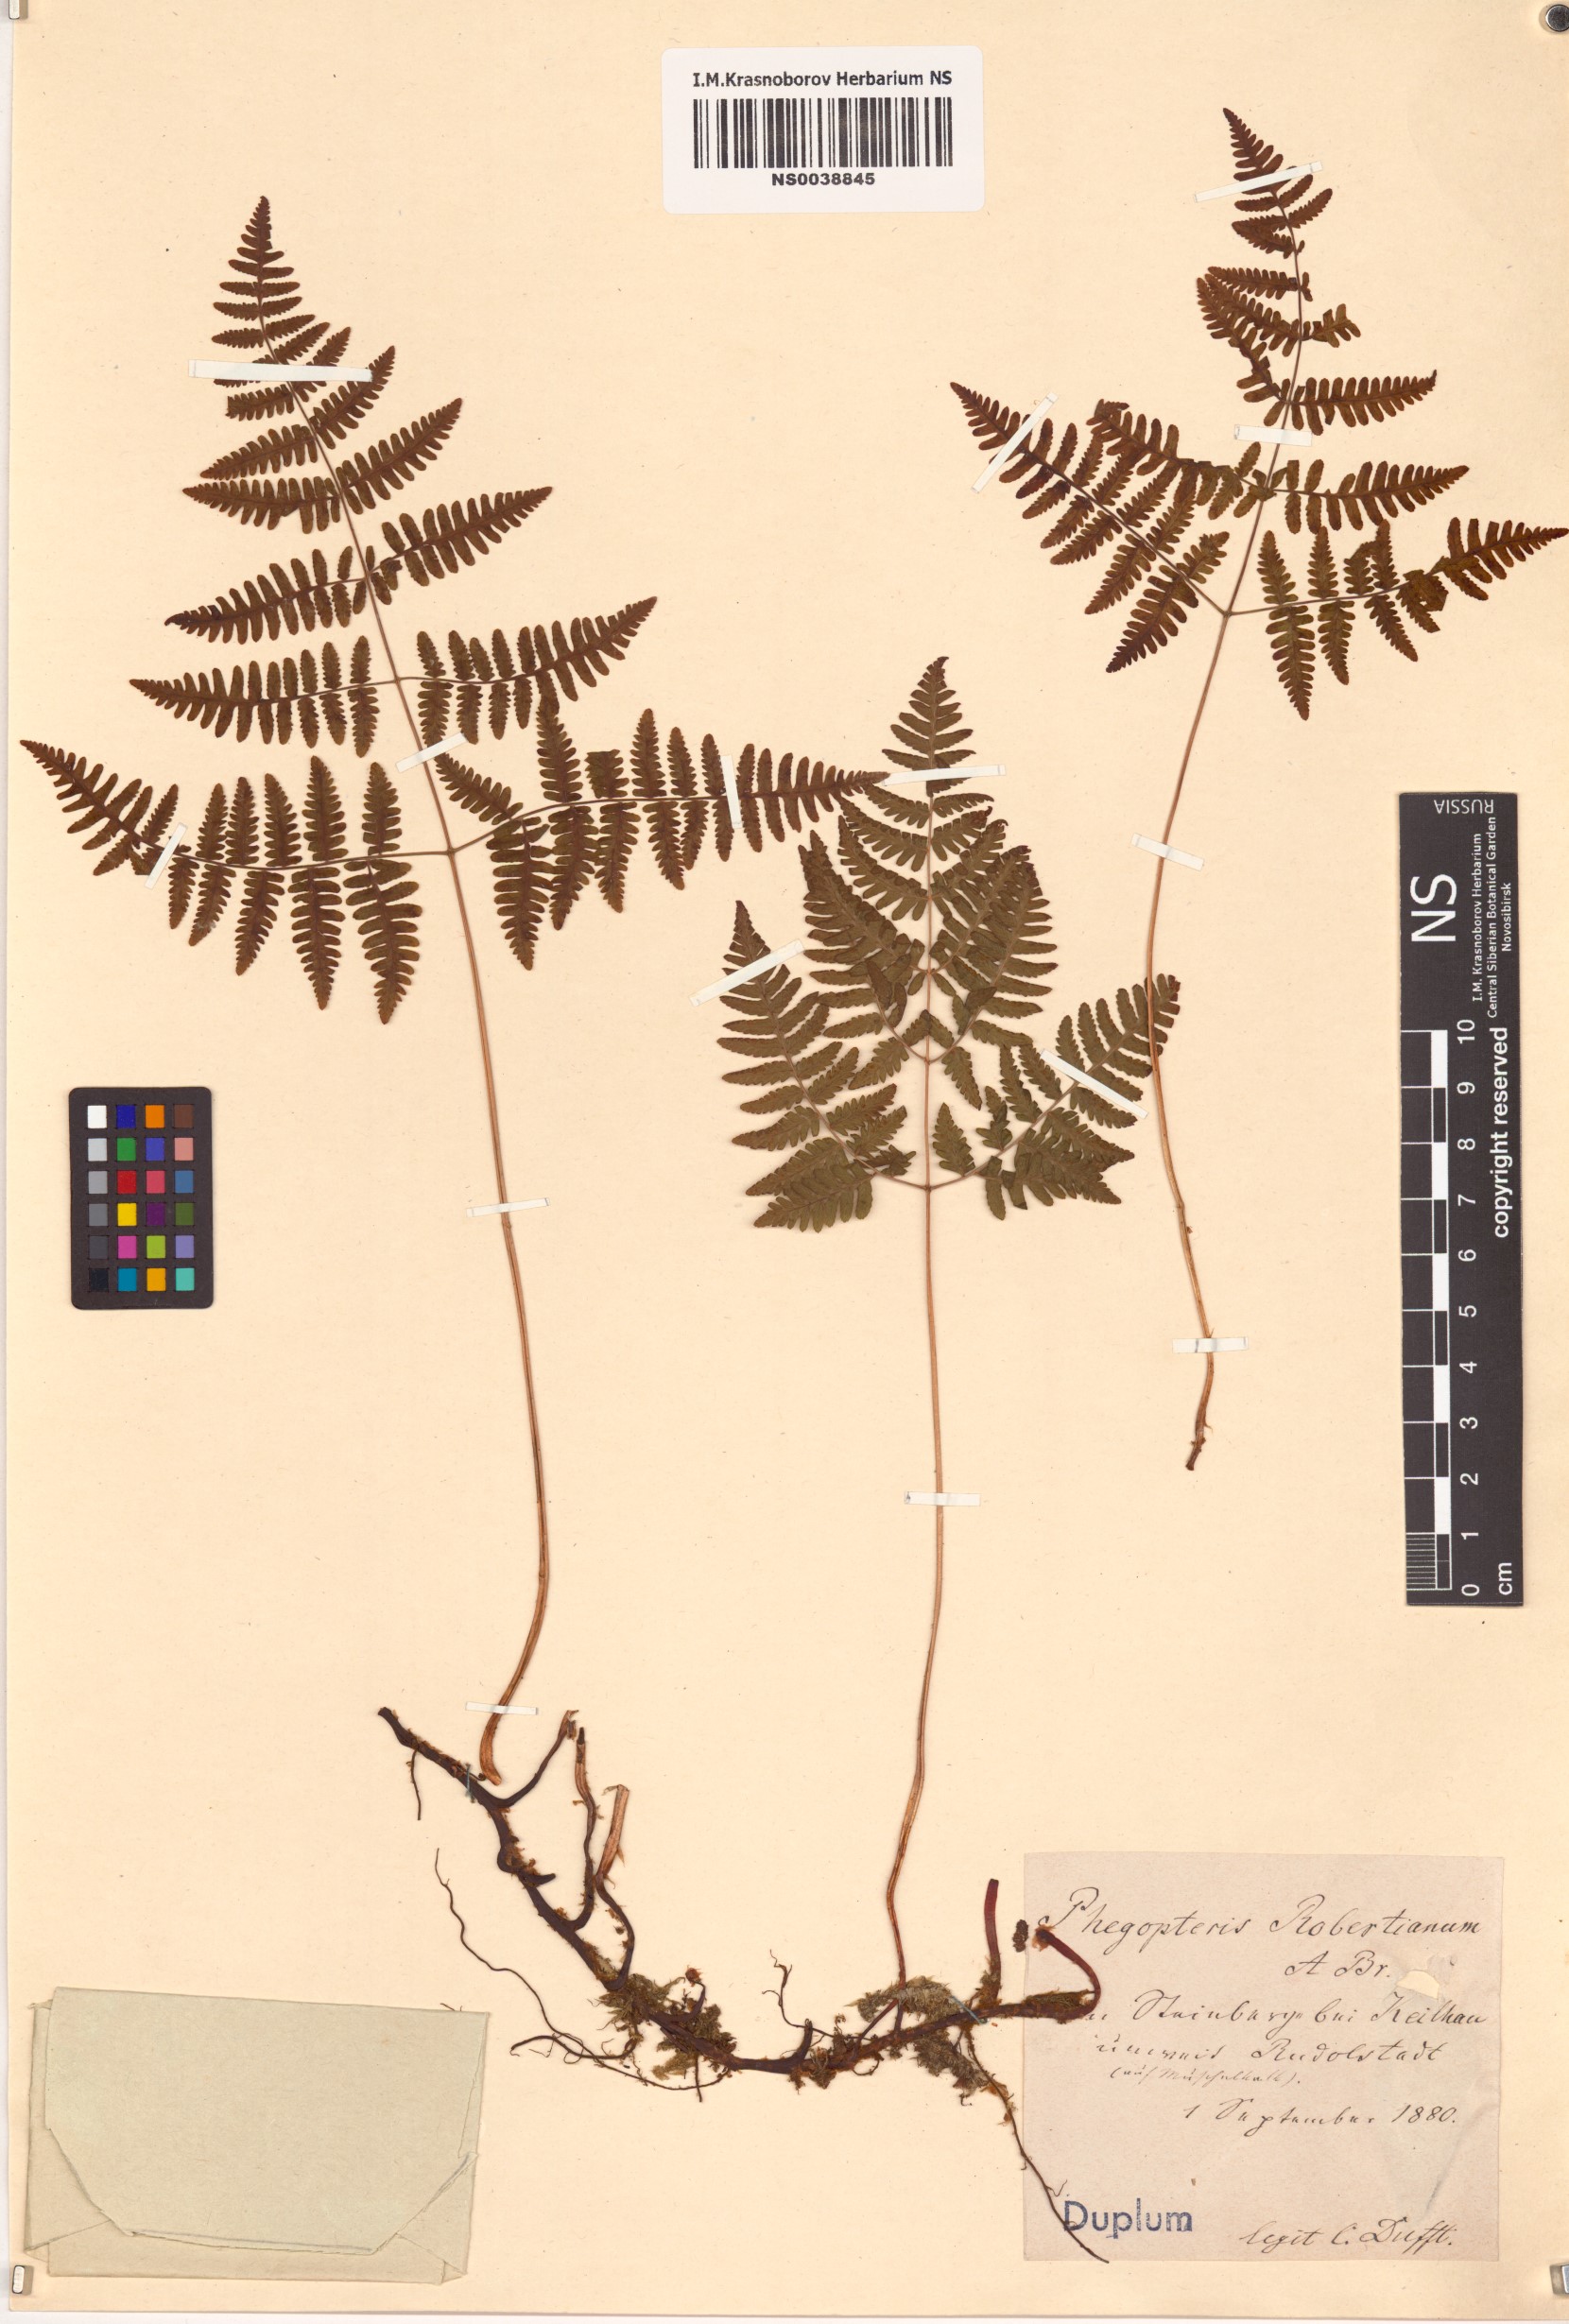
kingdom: Plantae
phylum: Tracheophyta
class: Polypodiopsida
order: Polypodiales
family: Cystopteridaceae
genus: Gymnocarpium
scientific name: Gymnocarpium robertianum
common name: Limestone fern
